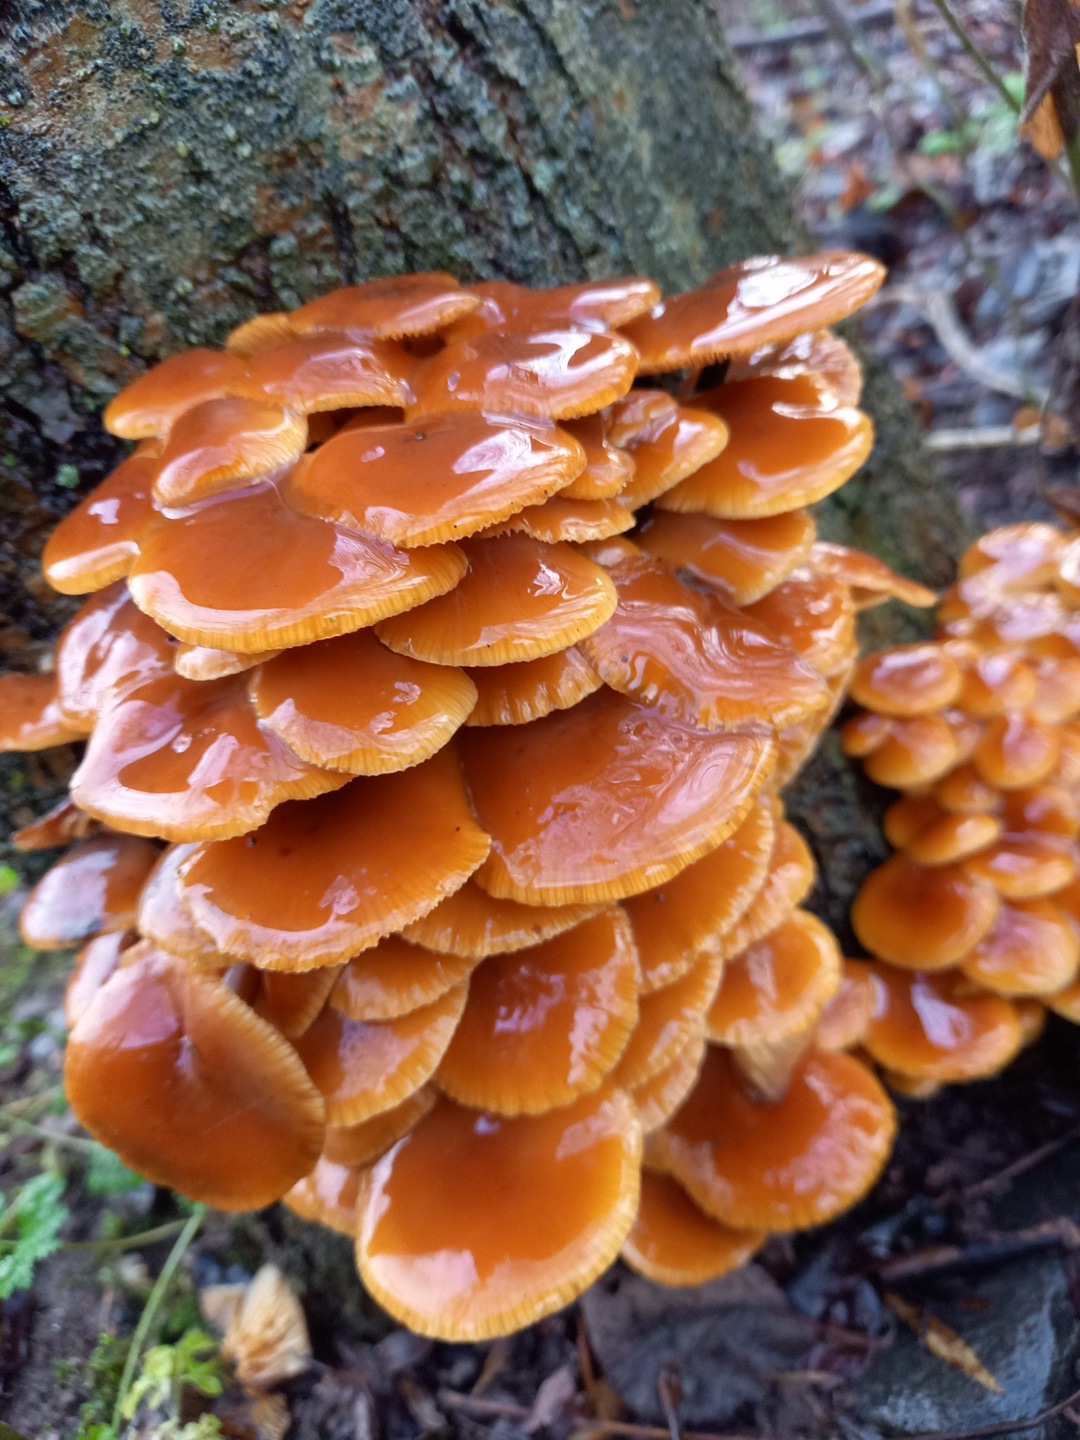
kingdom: Fungi
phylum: Basidiomycota
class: Agaricomycetes
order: Agaricales
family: Physalacriaceae
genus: Flammulina
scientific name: Flammulina velutipes
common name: gul fløjlsfod
